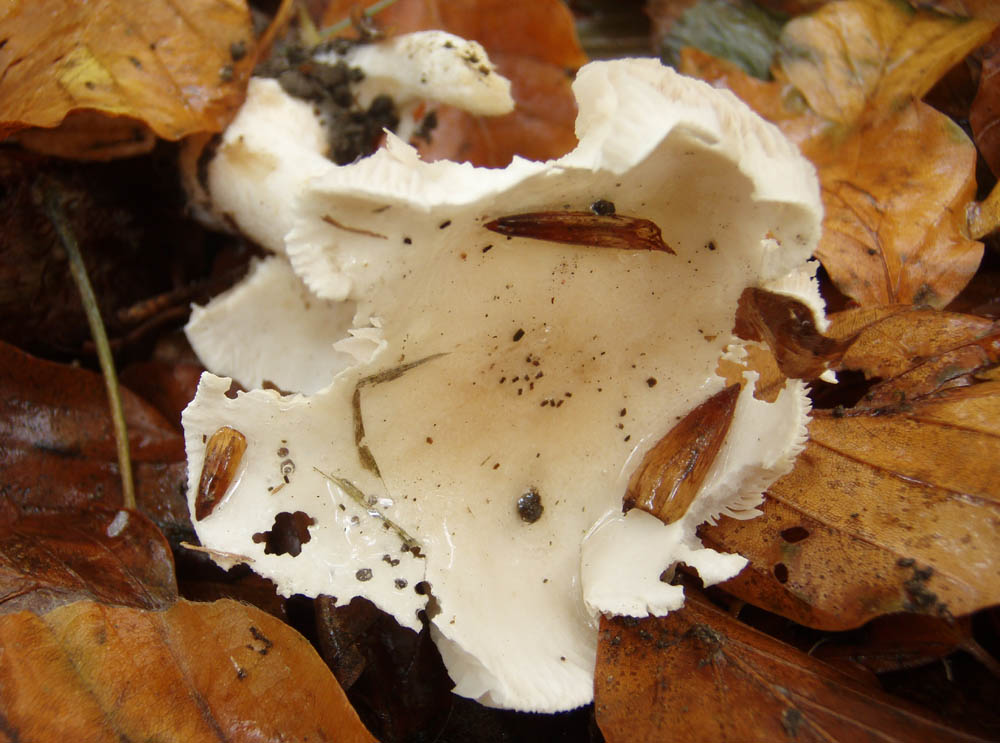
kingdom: Fungi
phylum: Basidiomycota
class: Agaricomycetes
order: Agaricales
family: Hymenogastraceae
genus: Hebeloma
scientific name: Hebeloma leucosarx
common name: højstokket tåreblad
